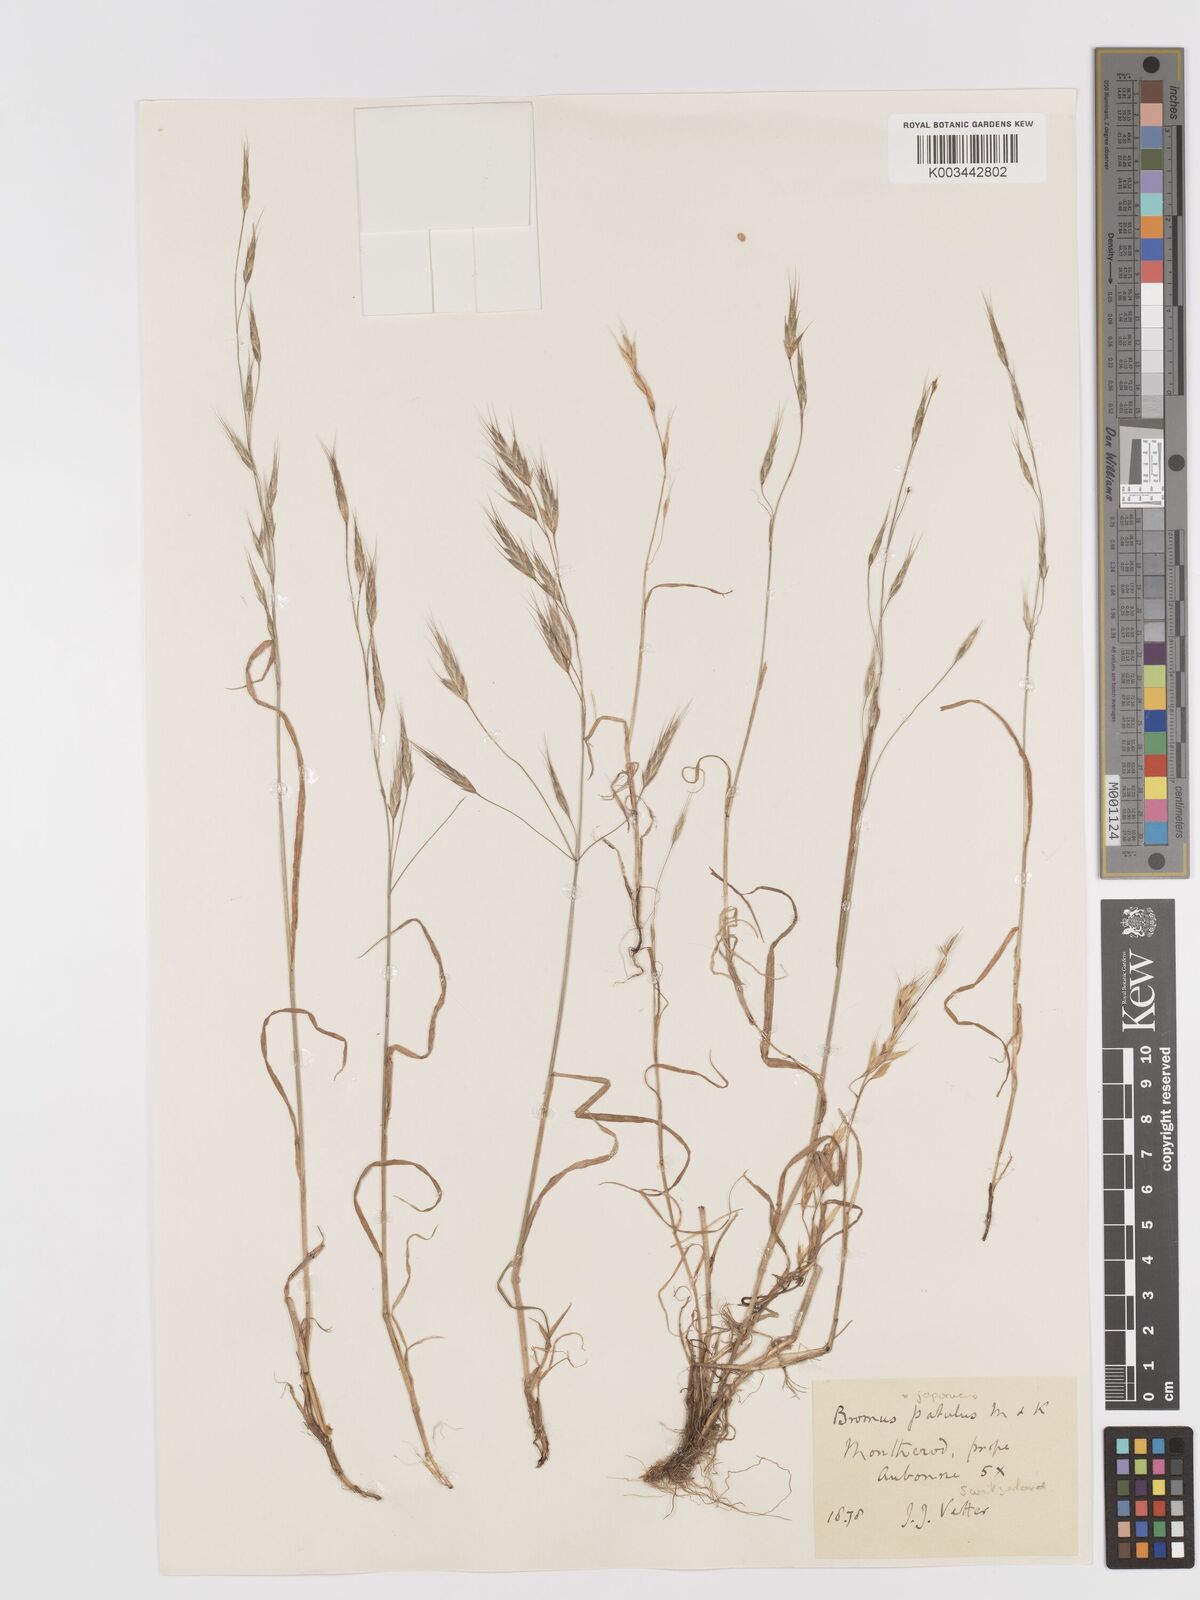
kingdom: Plantae
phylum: Tracheophyta
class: Liliopsida
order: Poales
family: Poaceae
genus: Bromus
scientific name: Bromus japonicus
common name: Japanese brome
